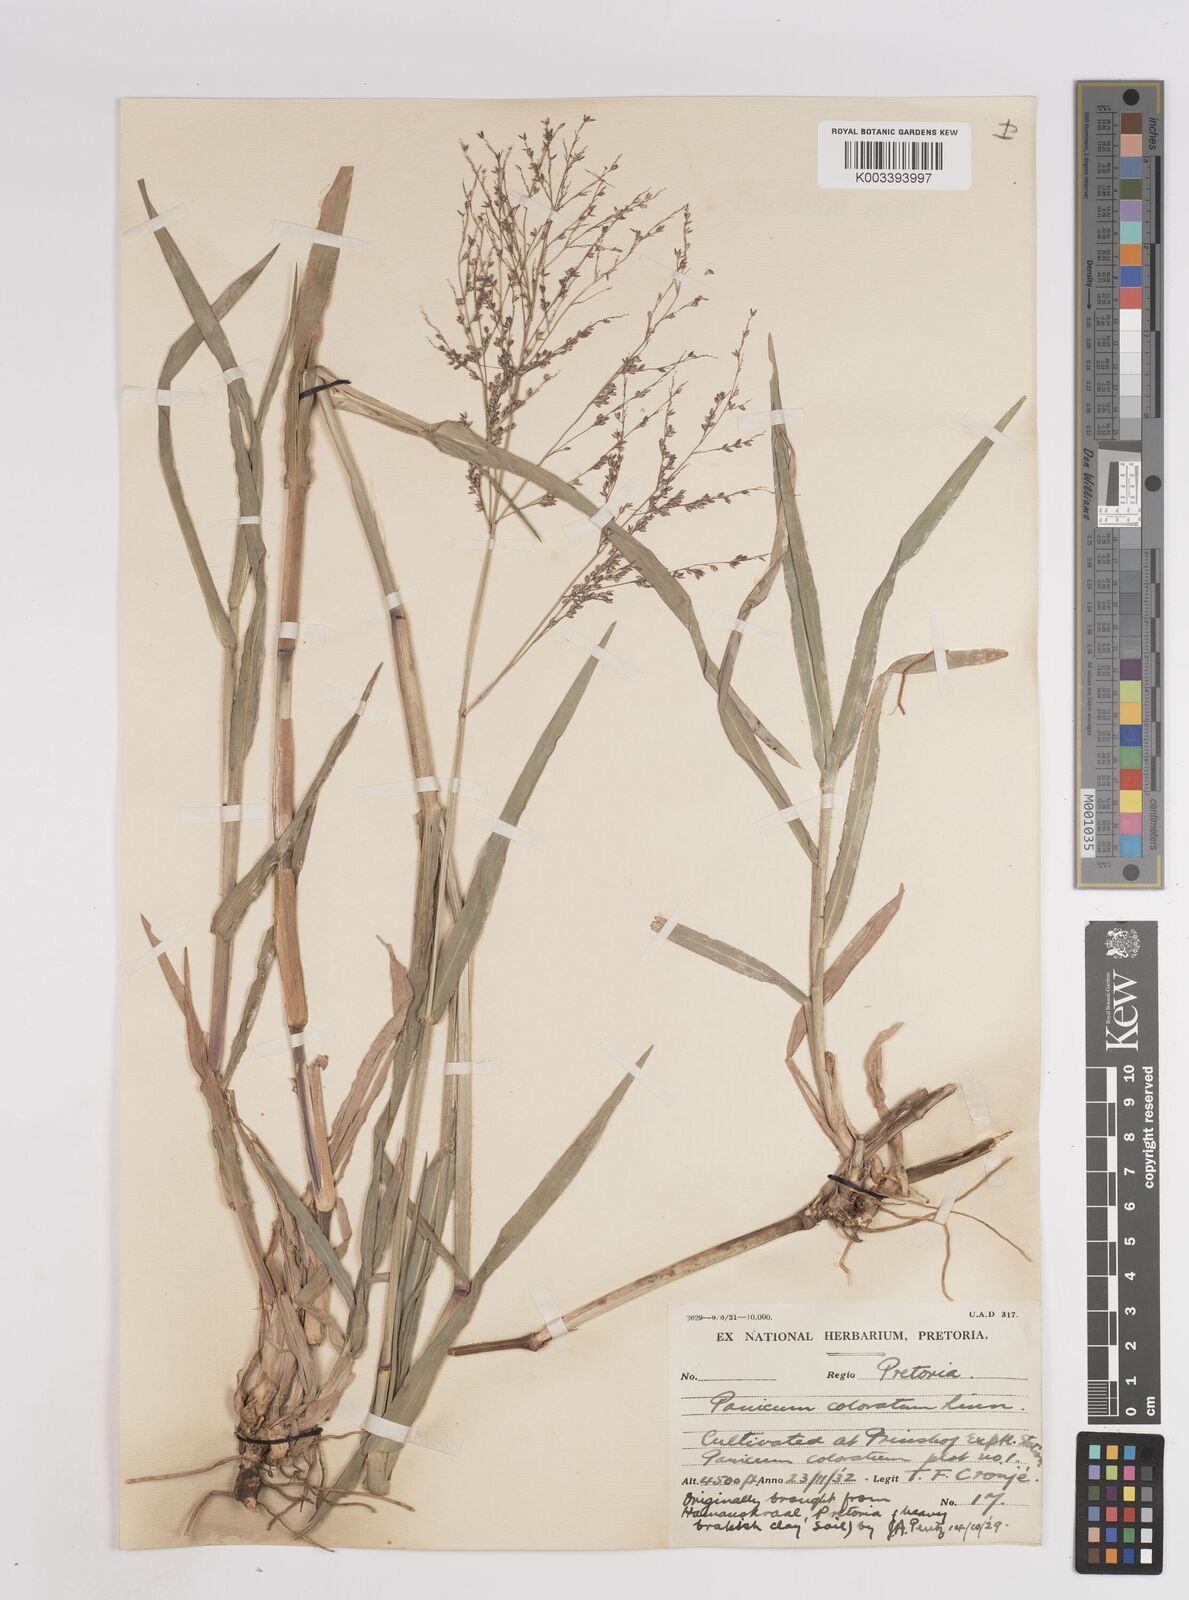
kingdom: Plantae
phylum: Tracheophyta
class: Liliopsida
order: Poales
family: Poaceae
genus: Panicum
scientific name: Panicum coloratum
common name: Kleingrass
